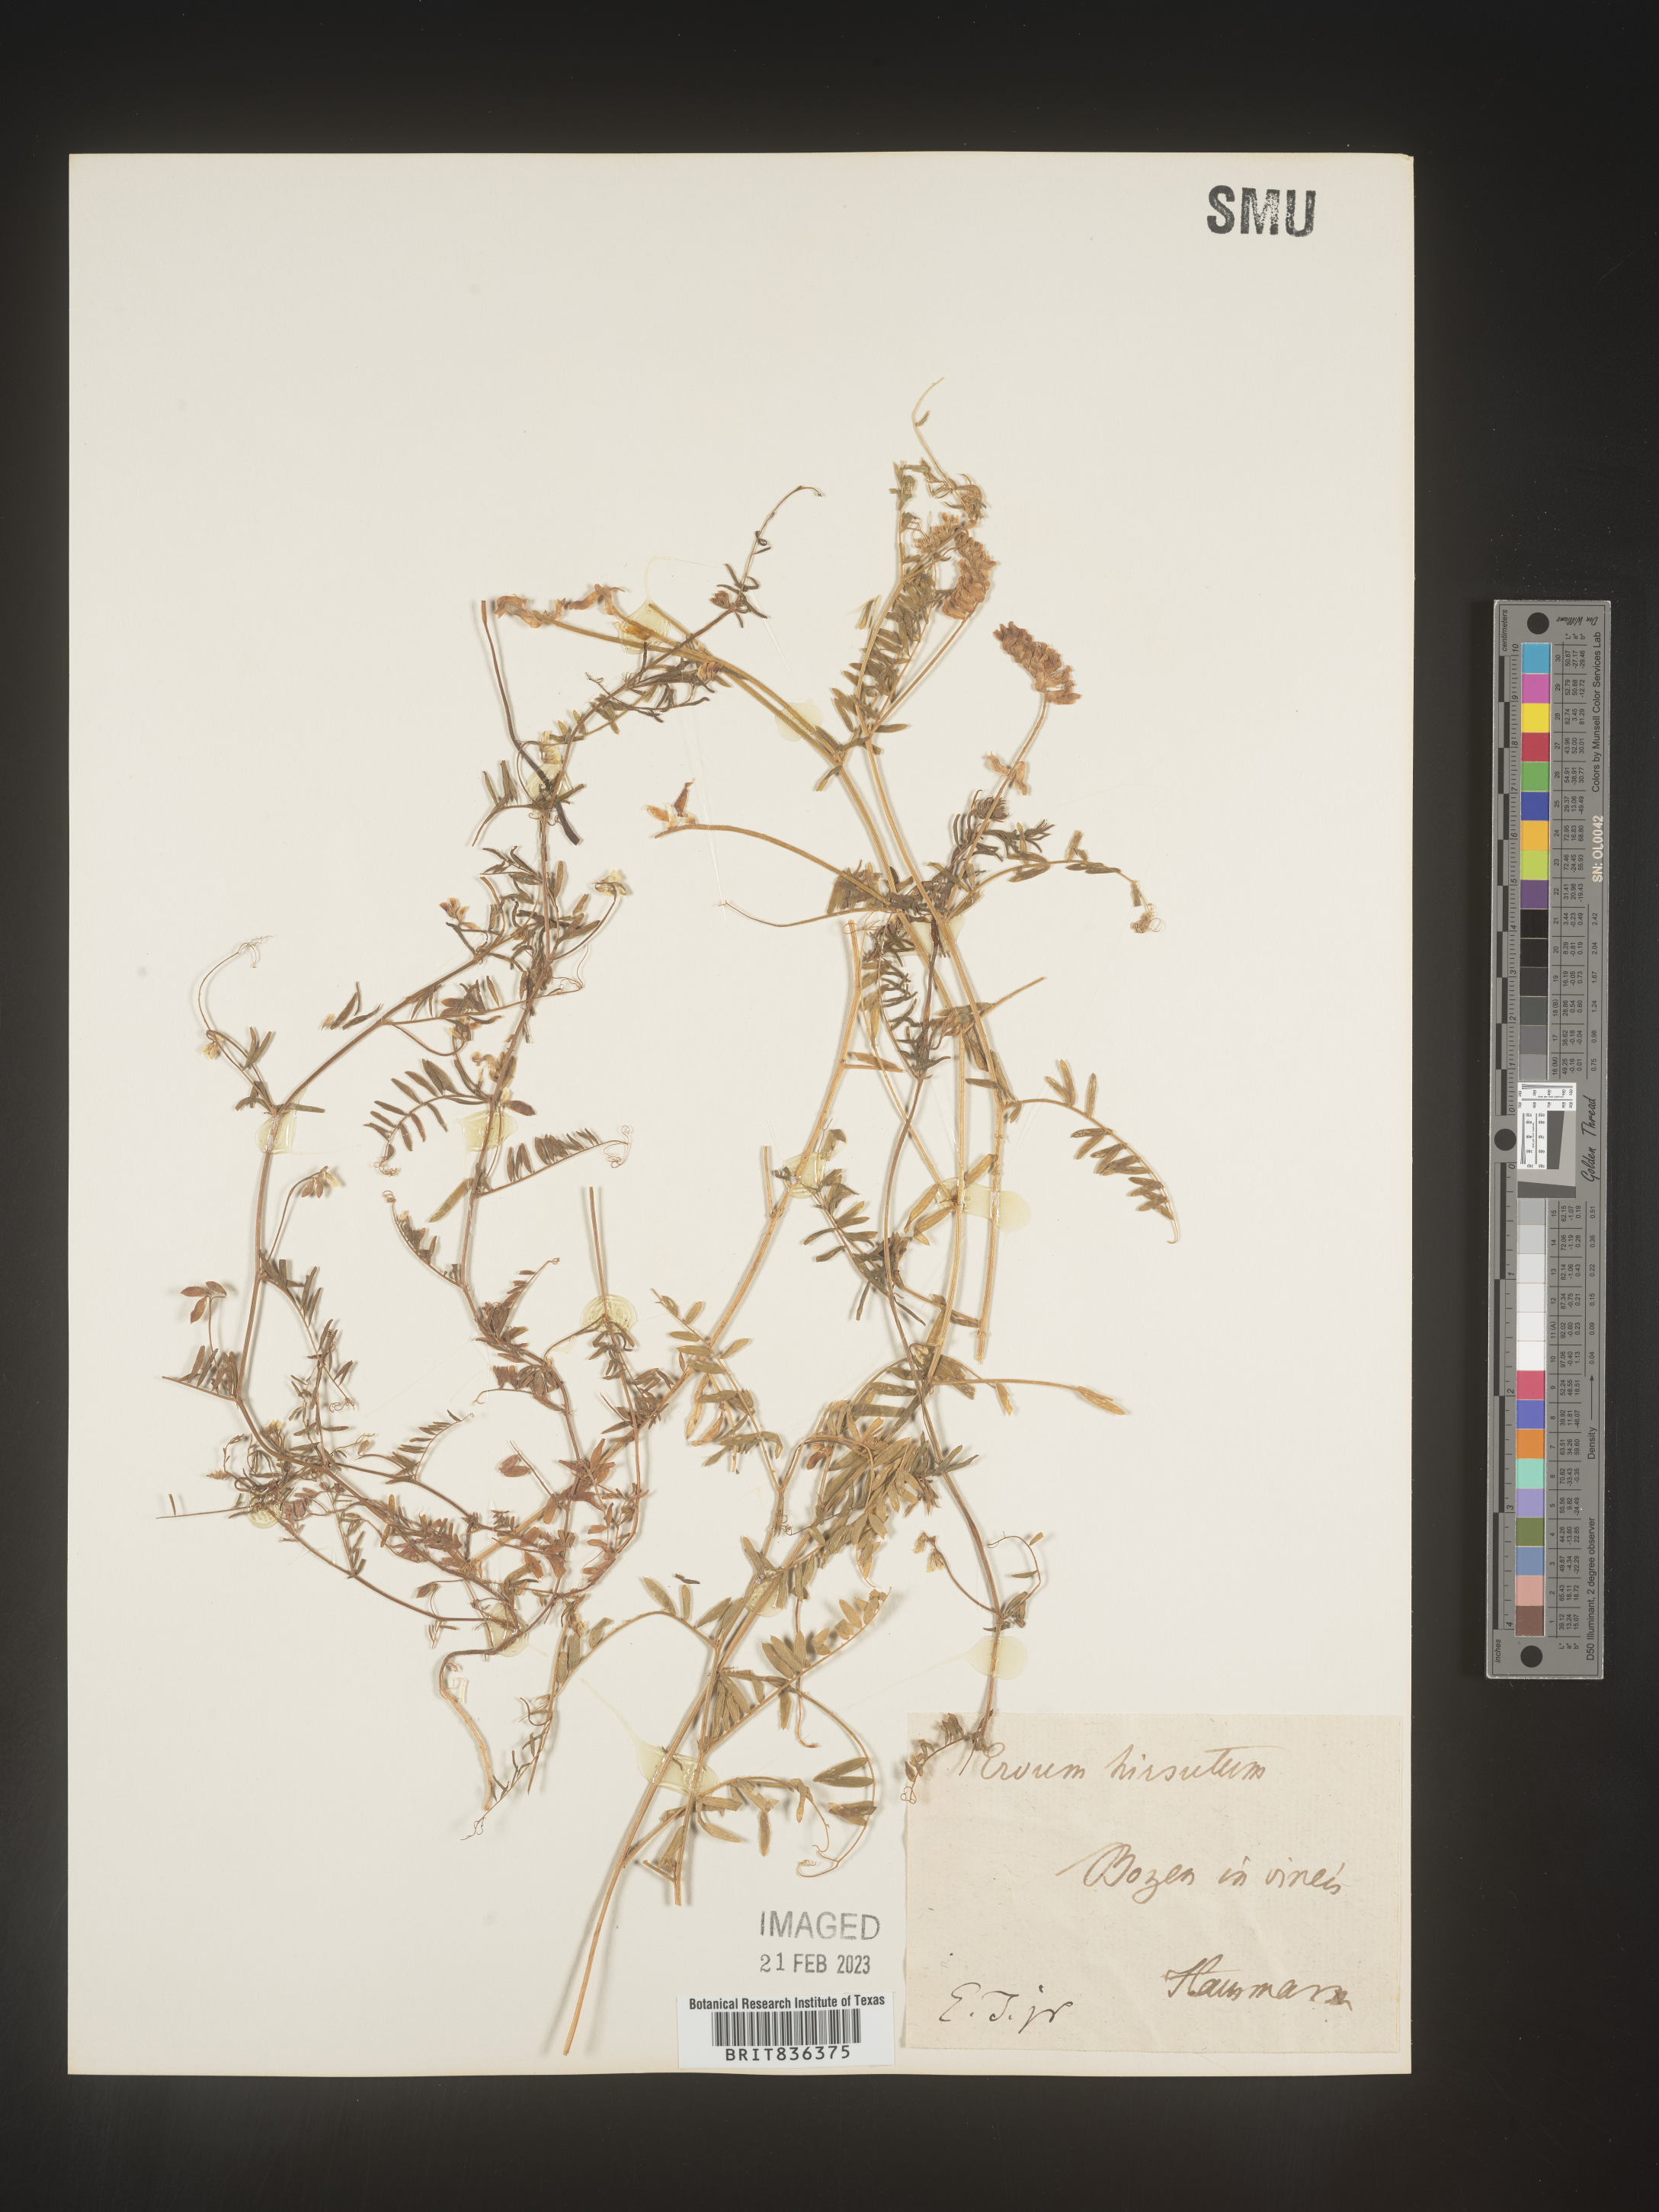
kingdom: Plantae
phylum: Tracheophyta
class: Magnoliopsida
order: Fabales
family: Fabaceae
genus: Vicia
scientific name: Vicia
